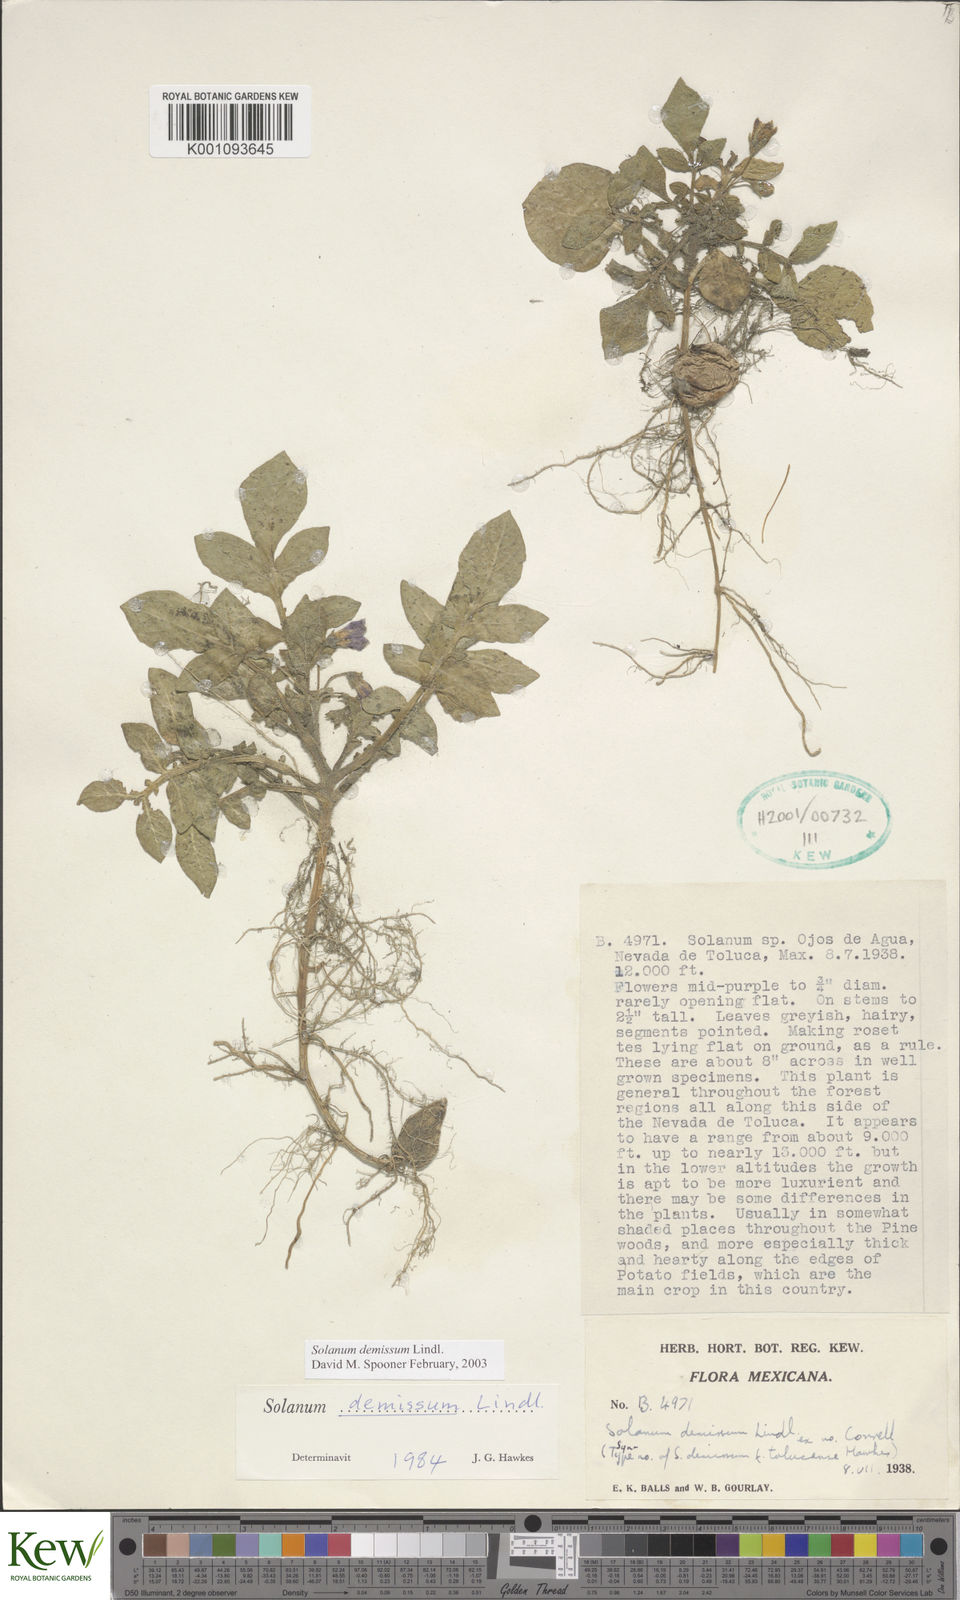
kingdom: Plantae
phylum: Tracheophyta
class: Magnoliopsida
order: Solanales
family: Solanaceae
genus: Solanum
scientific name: Solanum demissum
